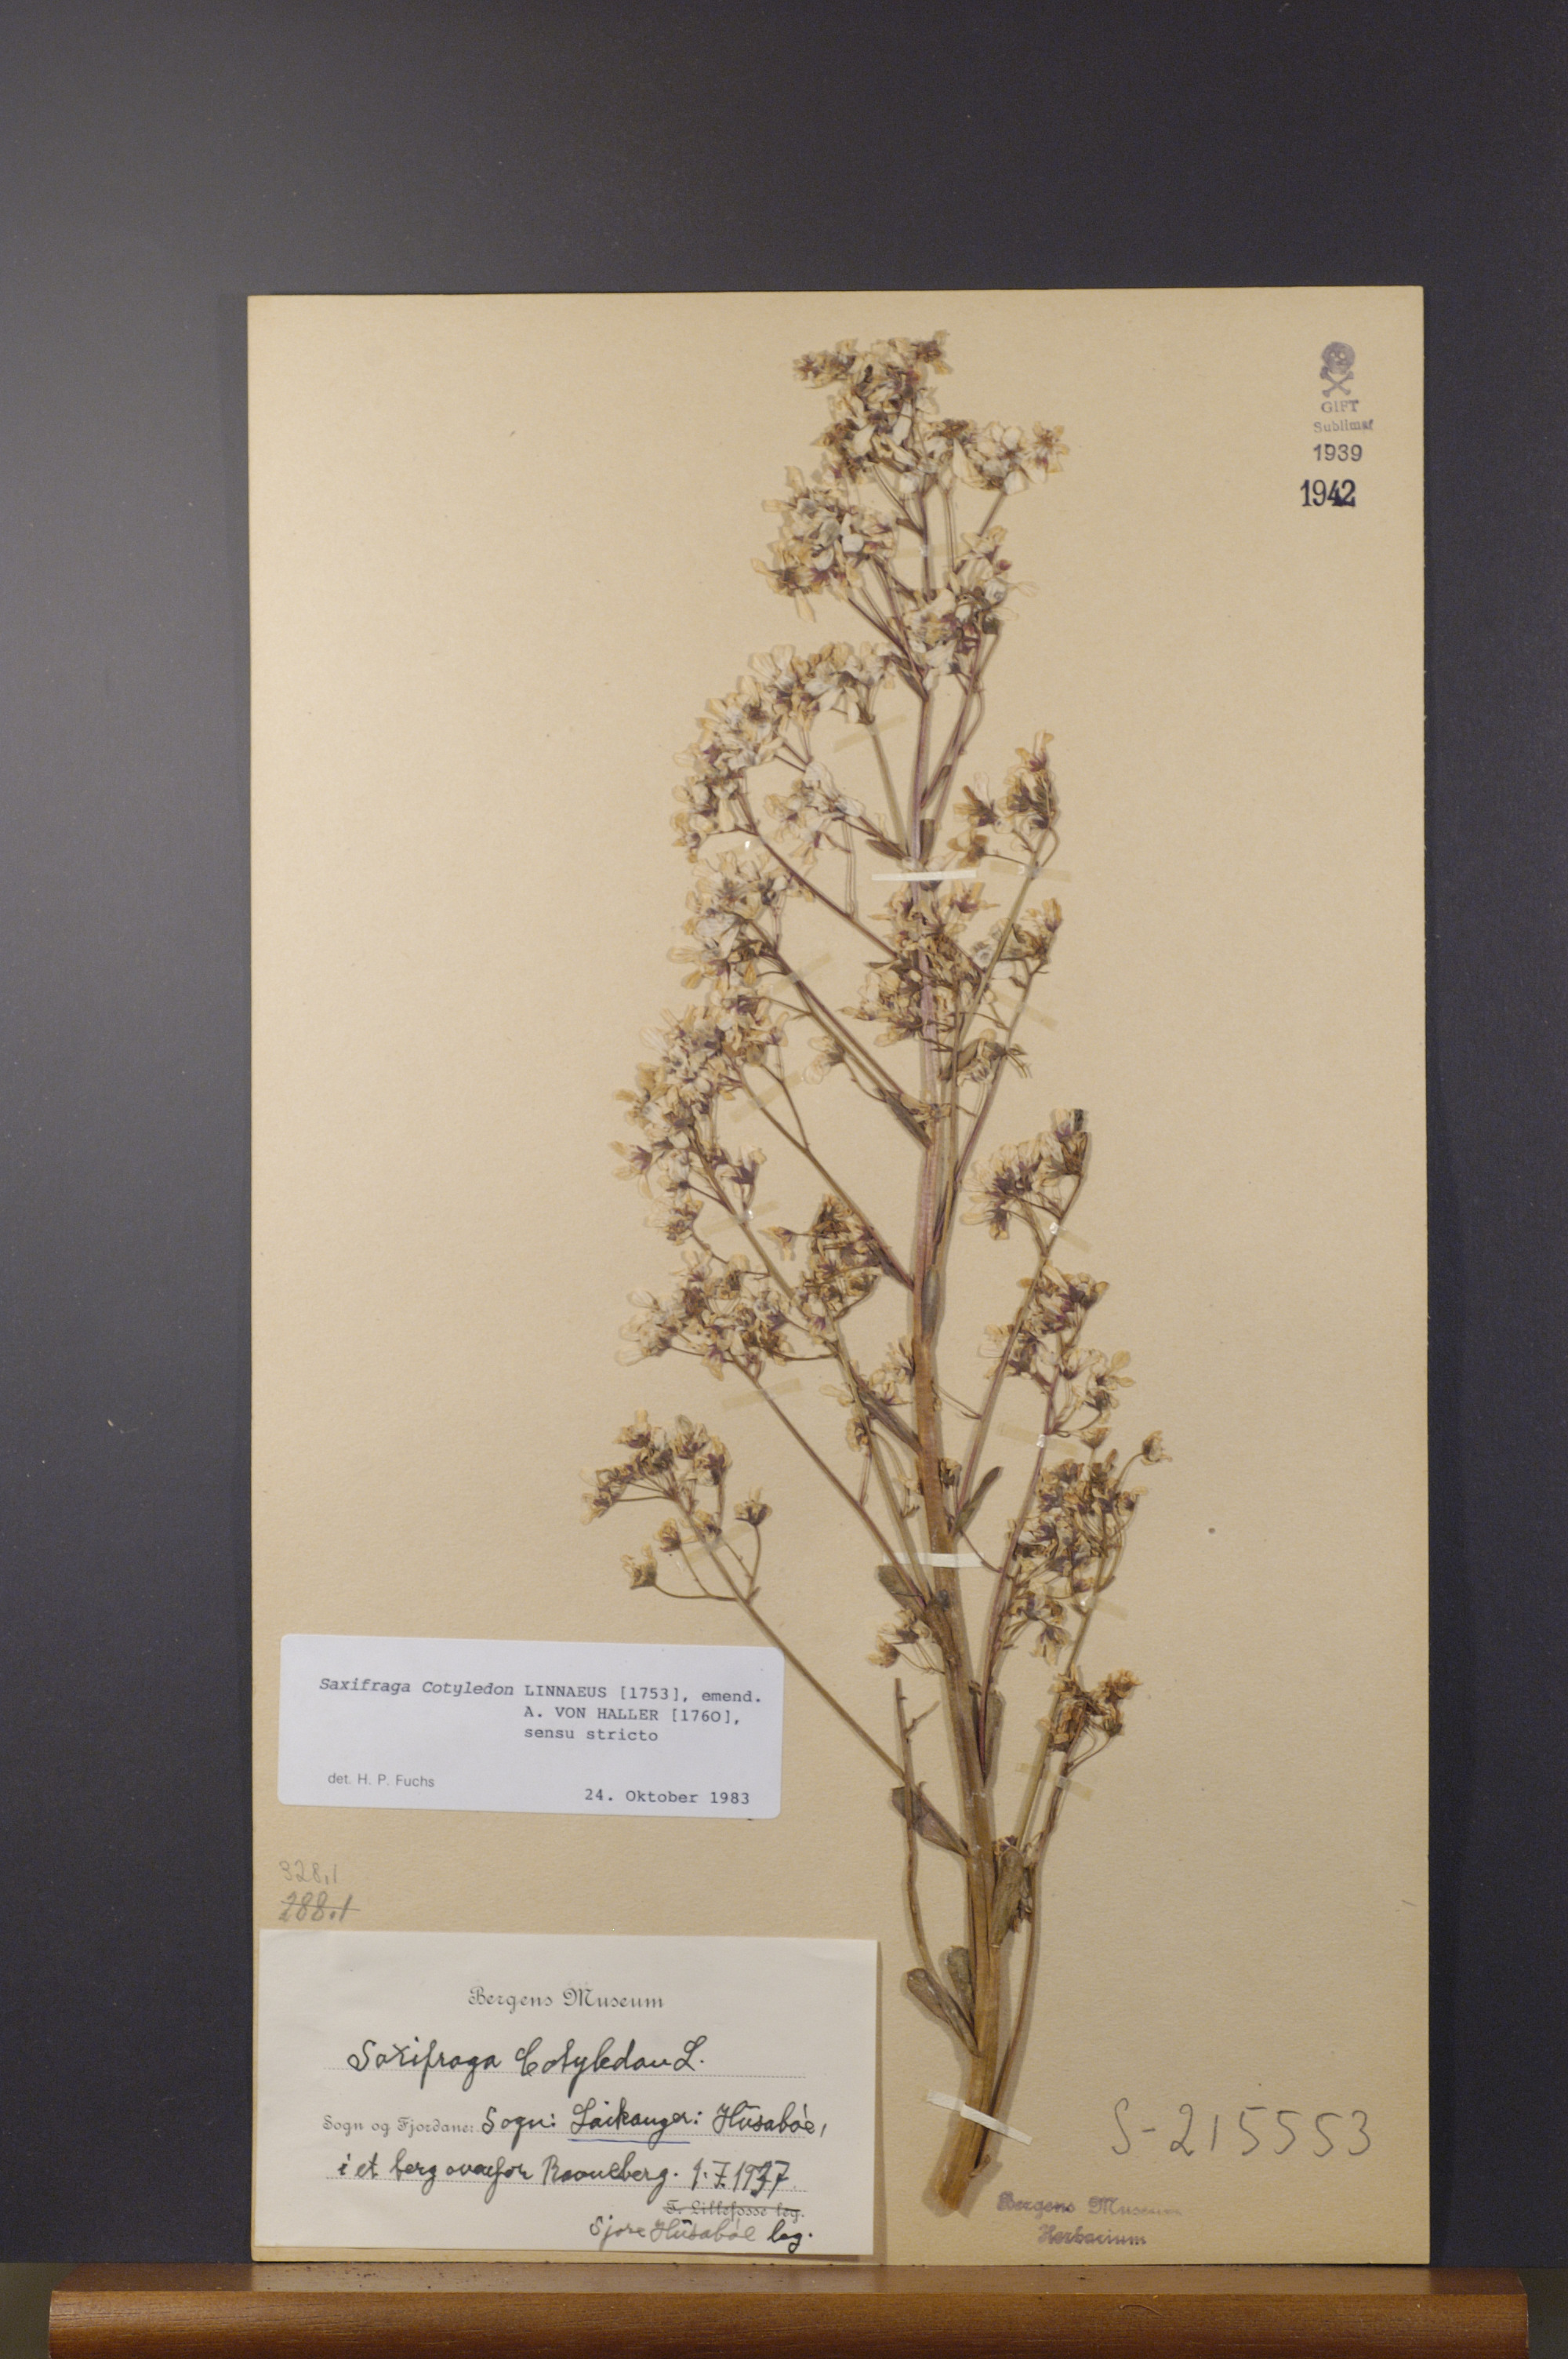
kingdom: Plantae
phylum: Tracheophyta
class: Magnoliopsida
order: Saxifragales
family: Saxifragaceae
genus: Saxifraga
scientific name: Saxifraga cotyledon
